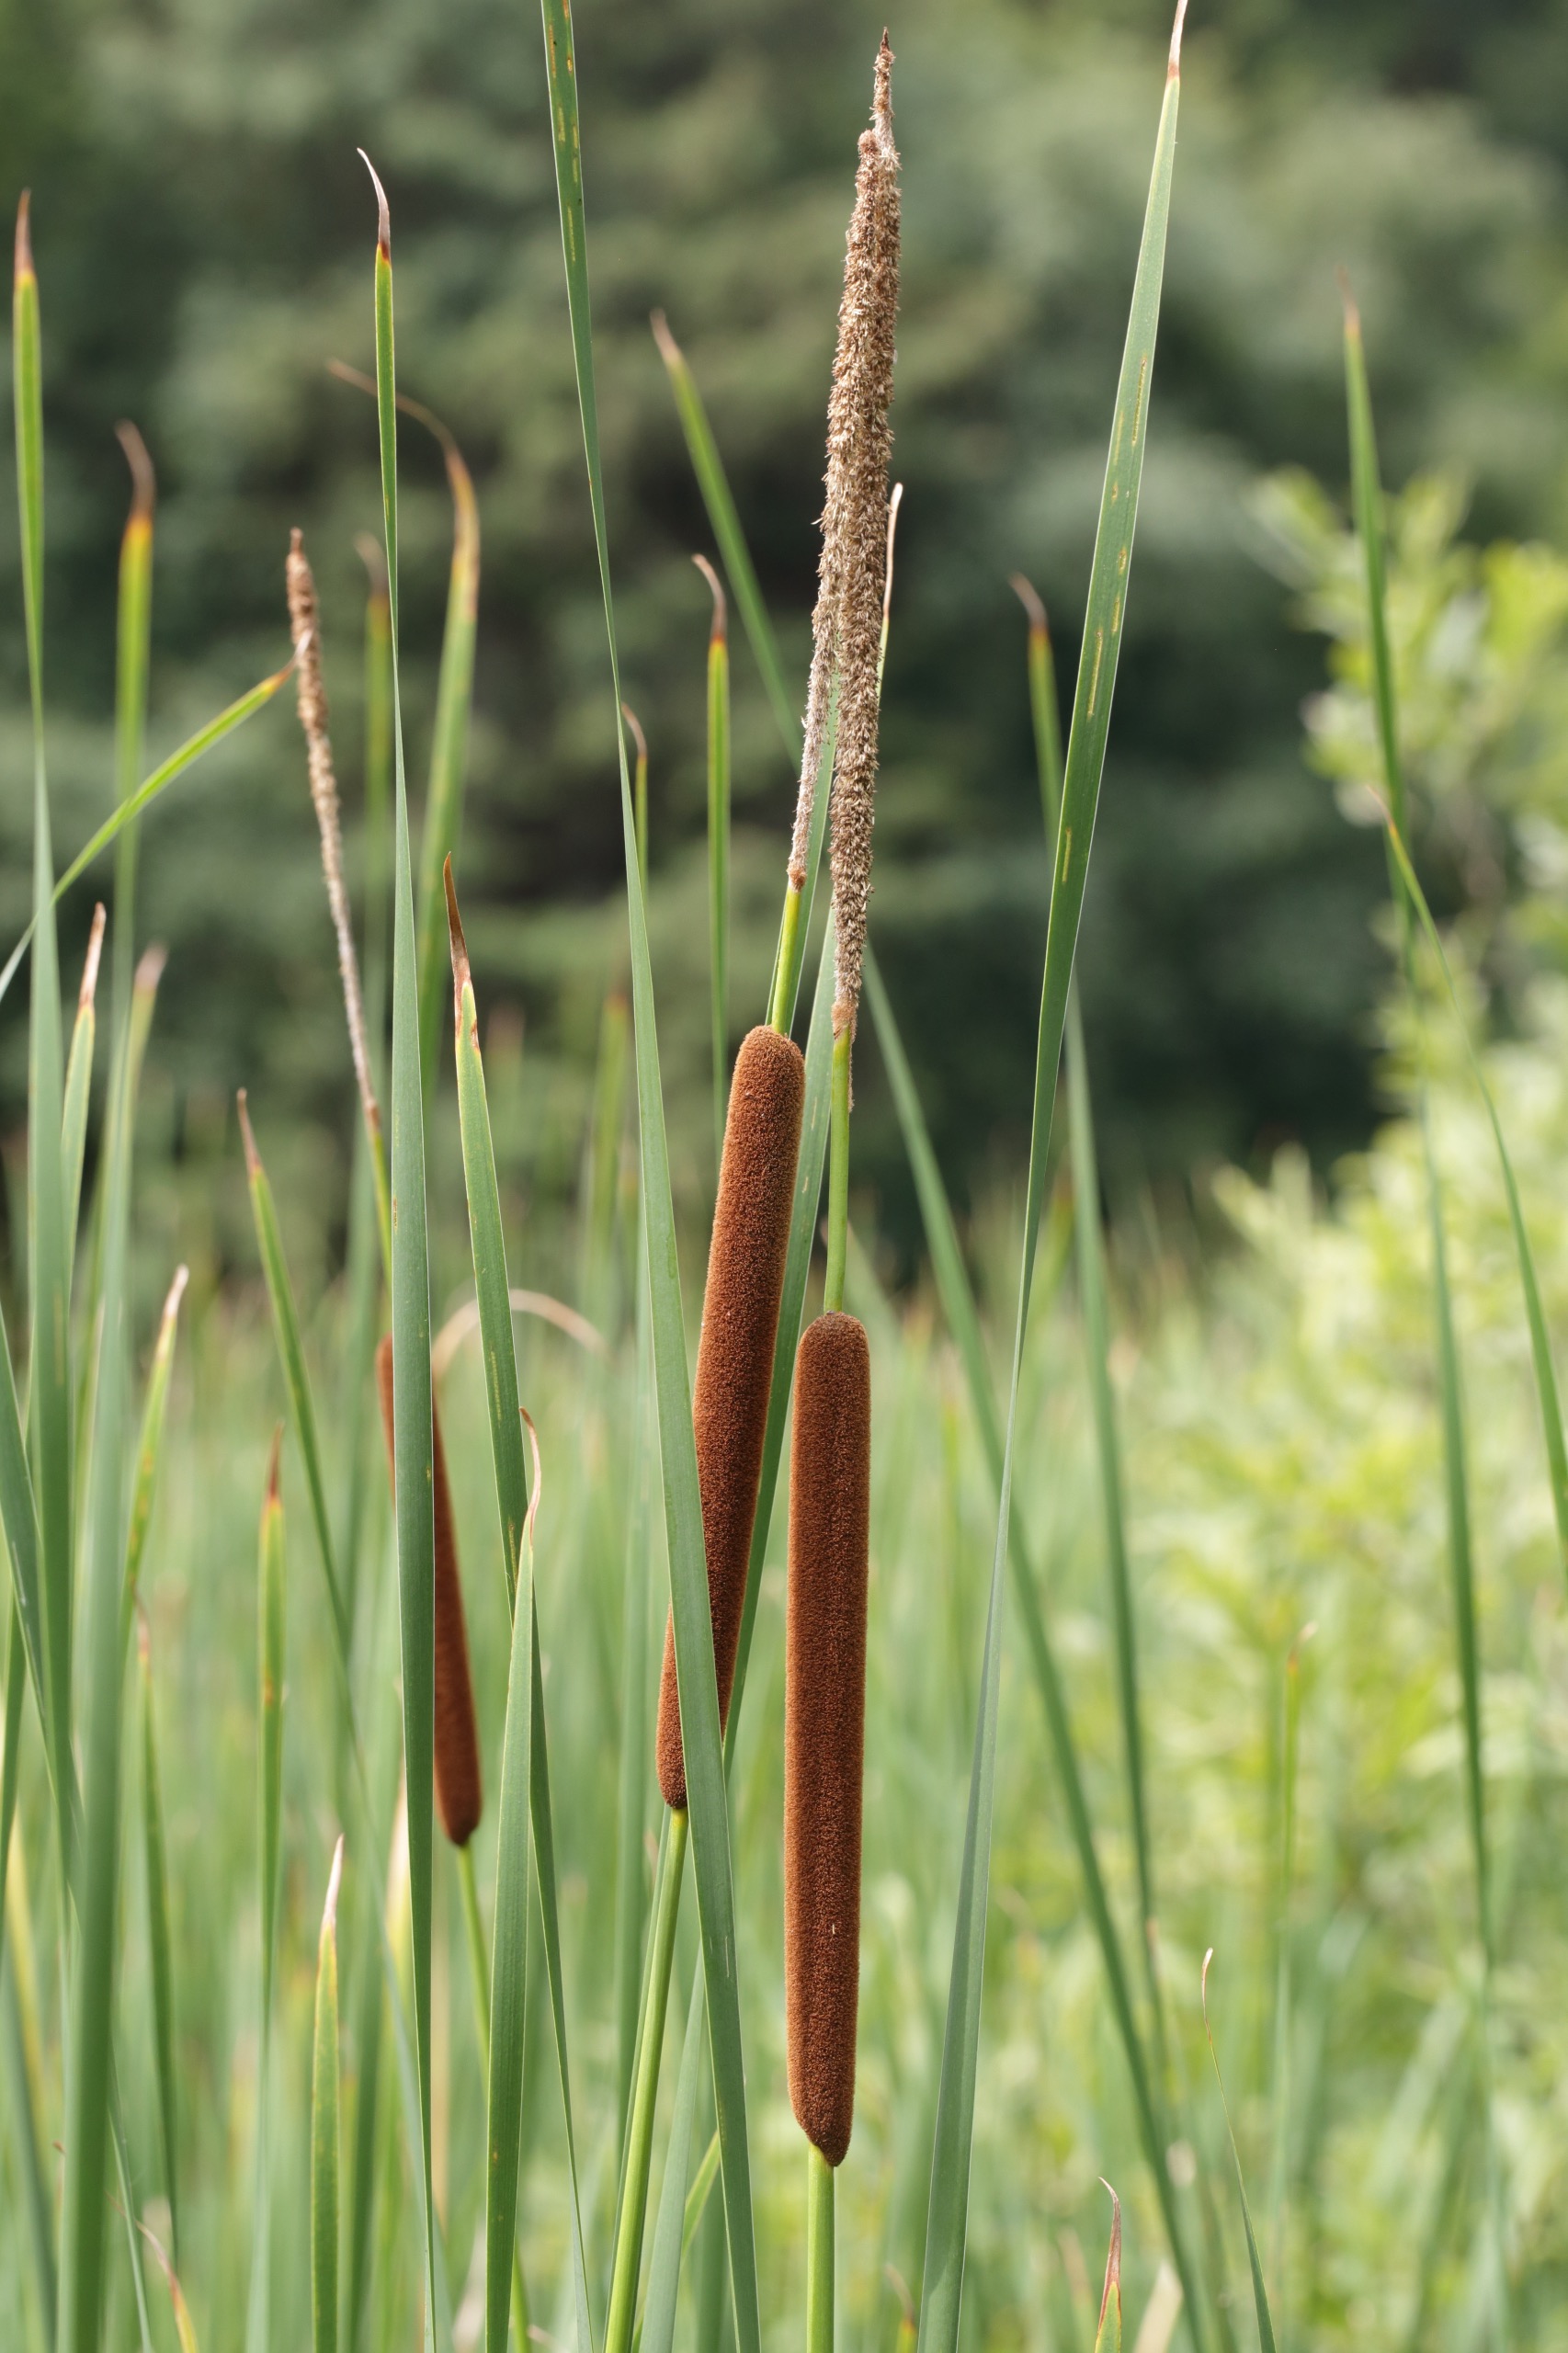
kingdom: Plantae
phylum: Tracheophyta
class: Liliopsida
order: Poales
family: Typhaceae
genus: Typha
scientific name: Typha angustifolia
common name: Smalbladet dunhammer
